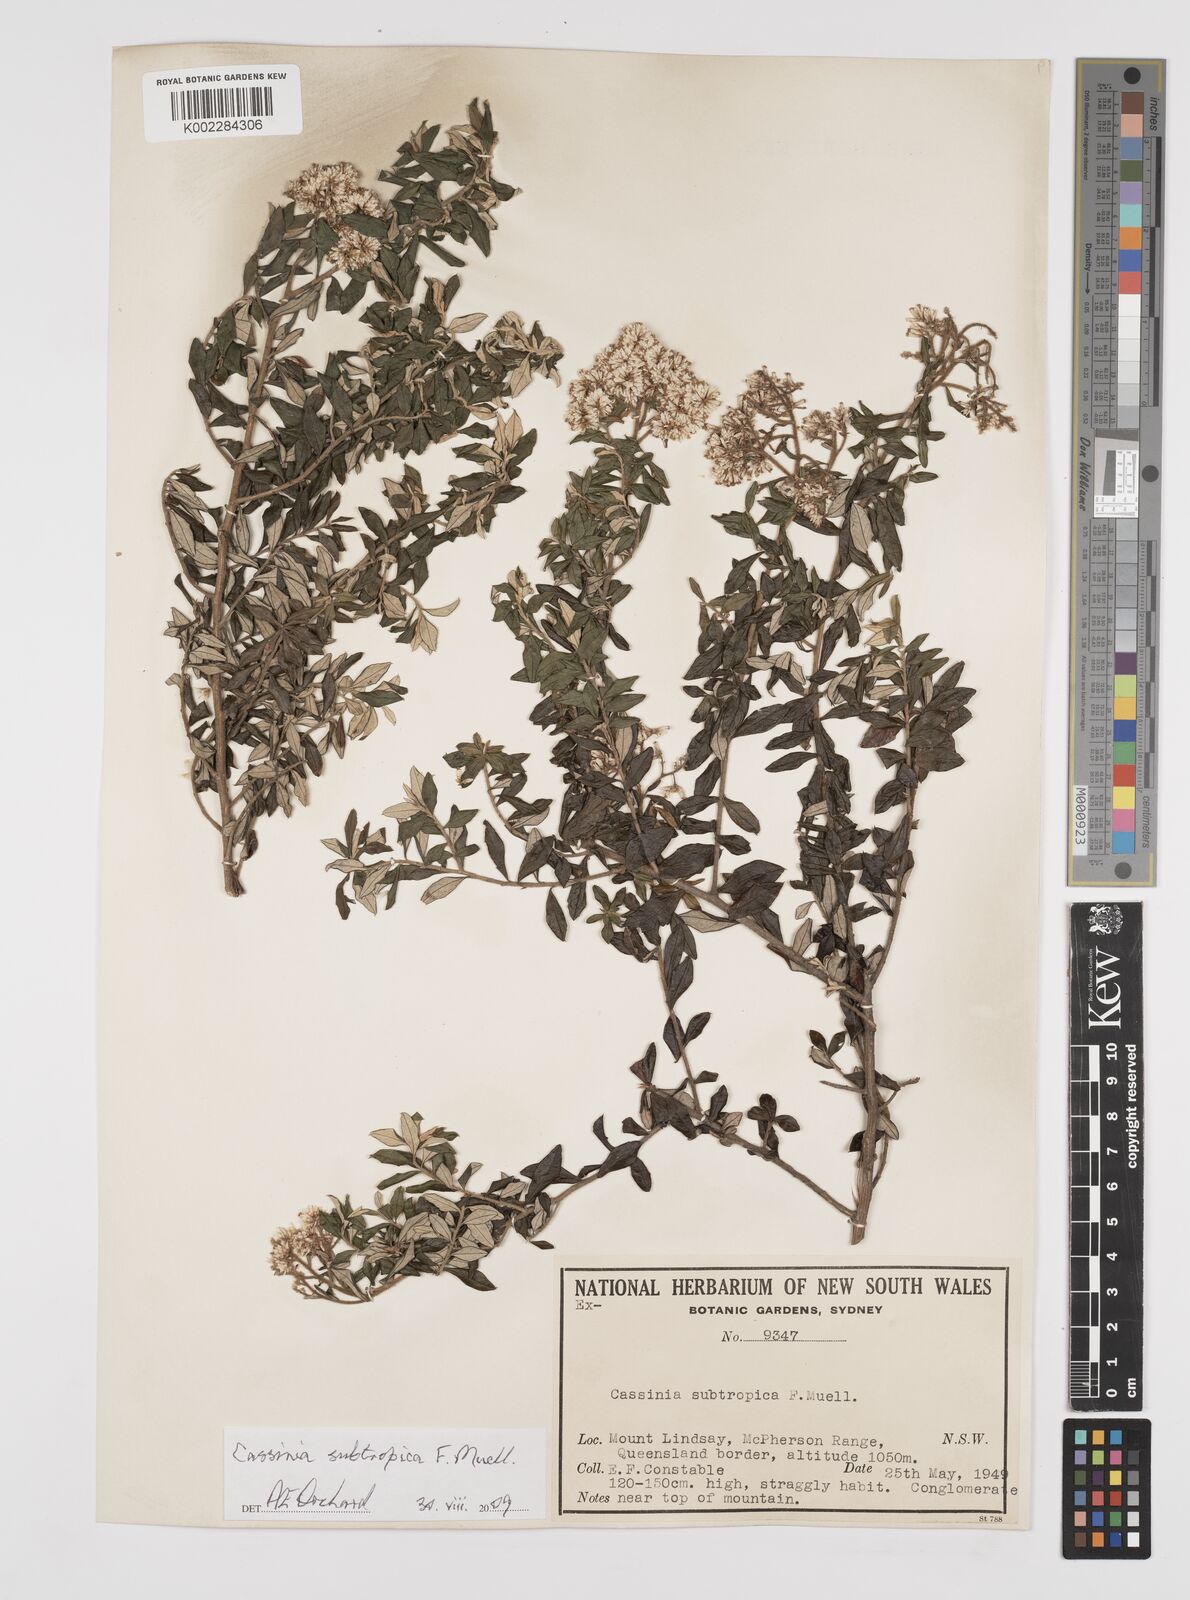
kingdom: Plantae
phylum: Tracheophyta
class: Magnoliopsida
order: Asterales
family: Asteraceae
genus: Cassinia
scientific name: Cassinia subtropica
